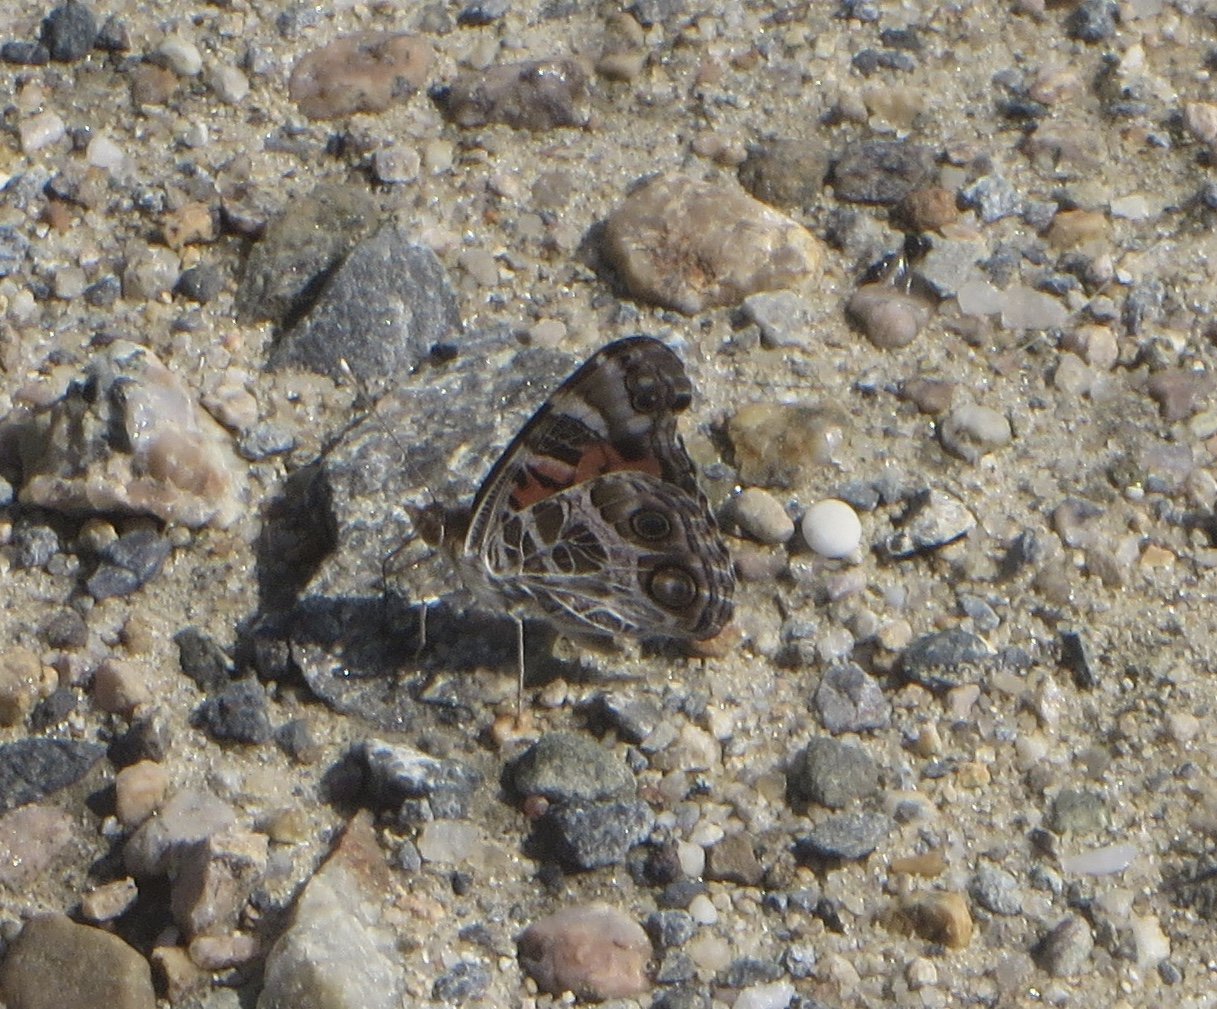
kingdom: Animalia
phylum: Arthropoda
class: Insecta
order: Lepidoptera
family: Nymphalidae
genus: Vanessa
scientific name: Vanessa virginiensis
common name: American Lady
